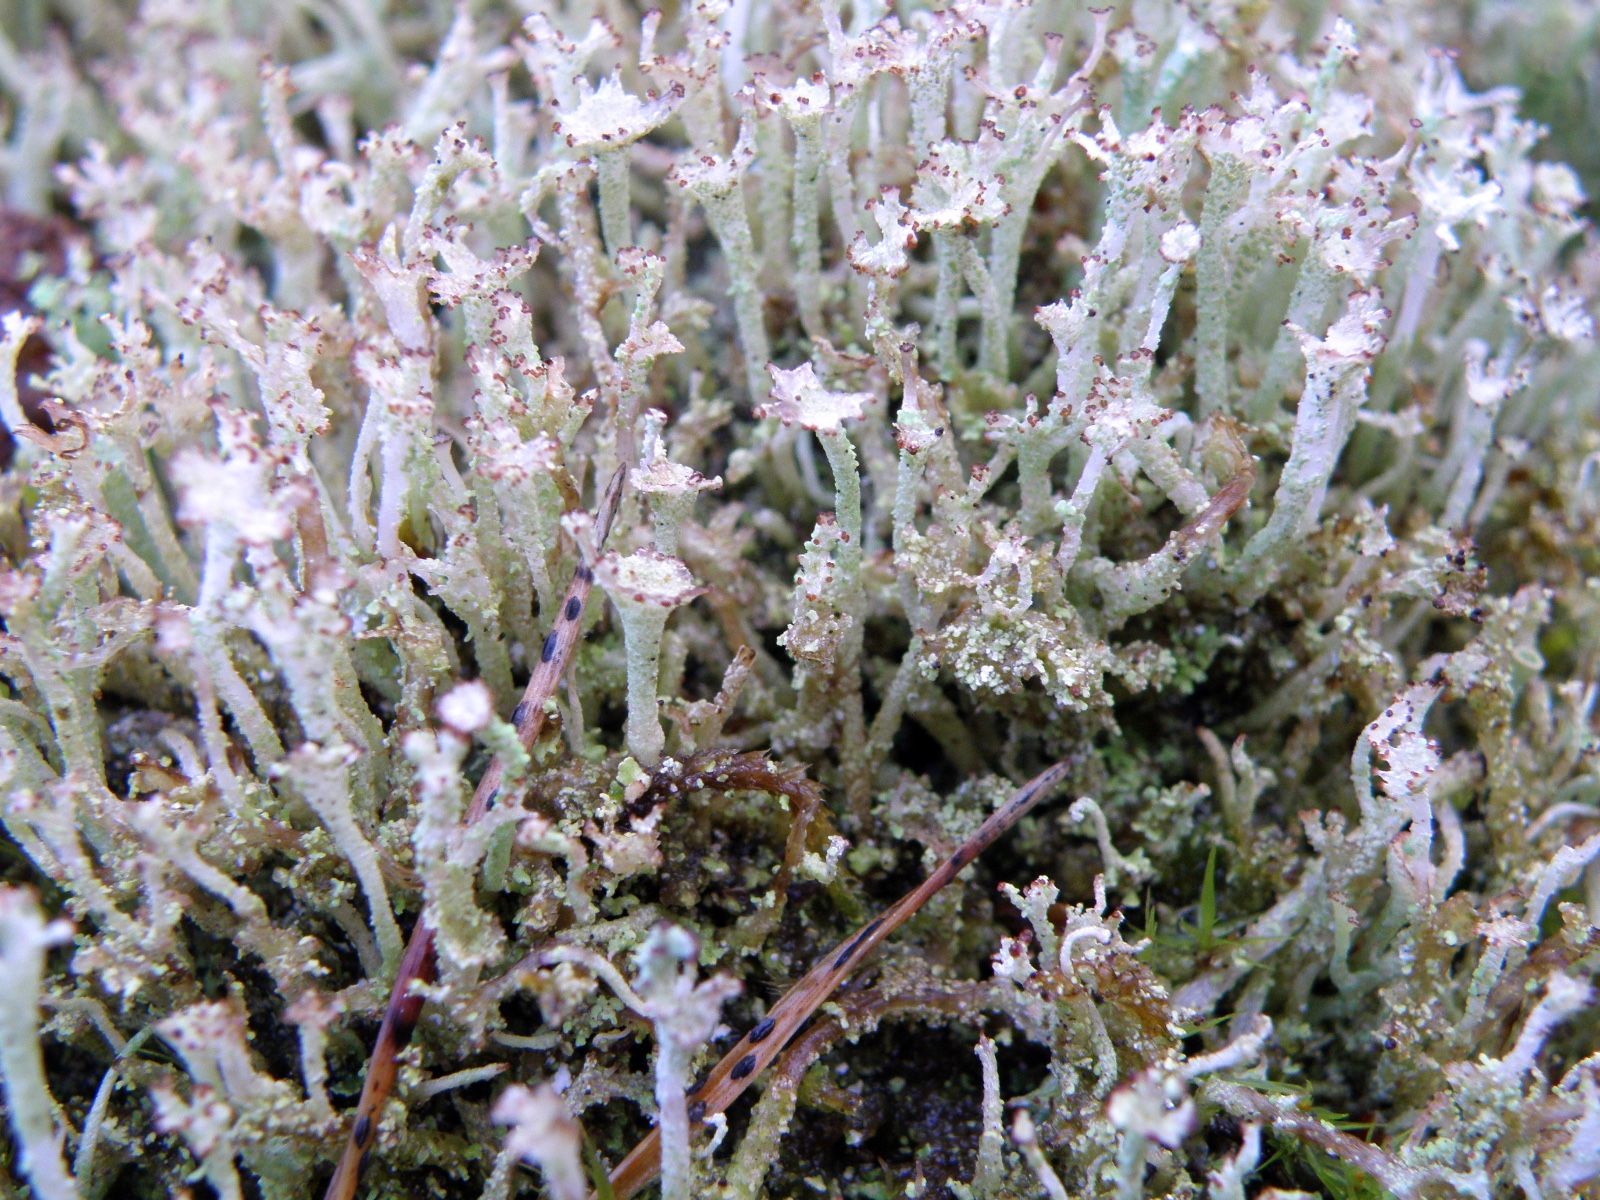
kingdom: Fungi
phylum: Ascomycota
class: Lecanoromycetes
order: Lecanorales
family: Cladoniaceae
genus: Cladonia
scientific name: Cladonia ramulosa
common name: kliddet bægerlav
